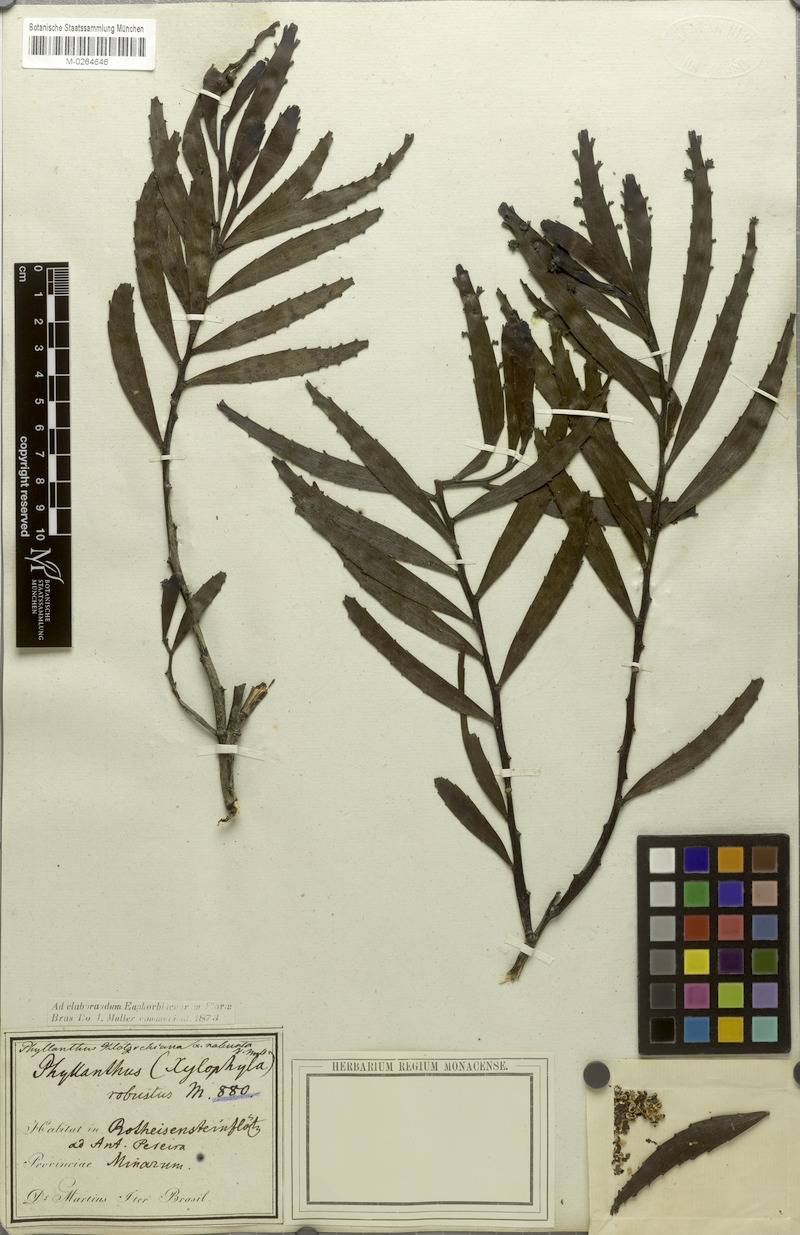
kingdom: Plantae
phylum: Tracheophyta
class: Magnoliopsida
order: Malpighiales
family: Phyllanthaceae
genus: Phyllanthus
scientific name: Phyllanthus robustus
